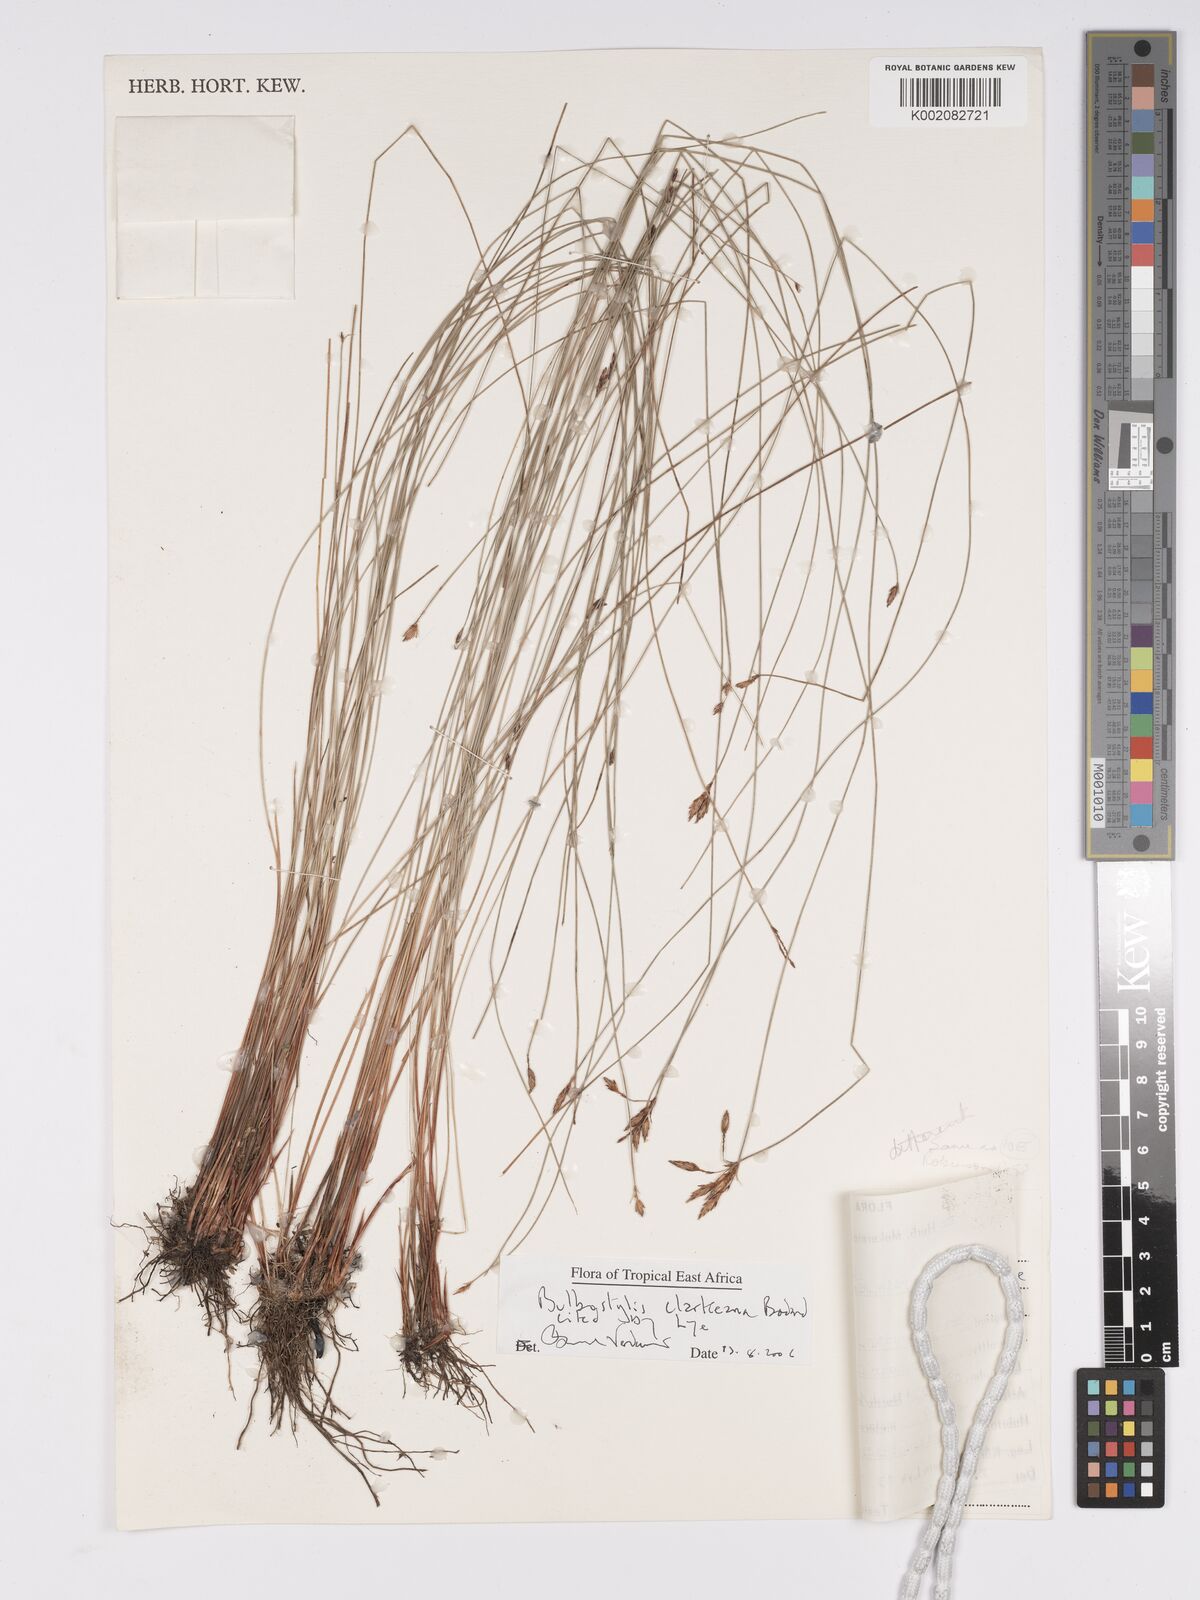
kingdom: Plantae
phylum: Tracheophyta
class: Liliopsida
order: Poales
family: Cyperaceae
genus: Bulbostylis
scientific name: Bulbostylis clarkeana
